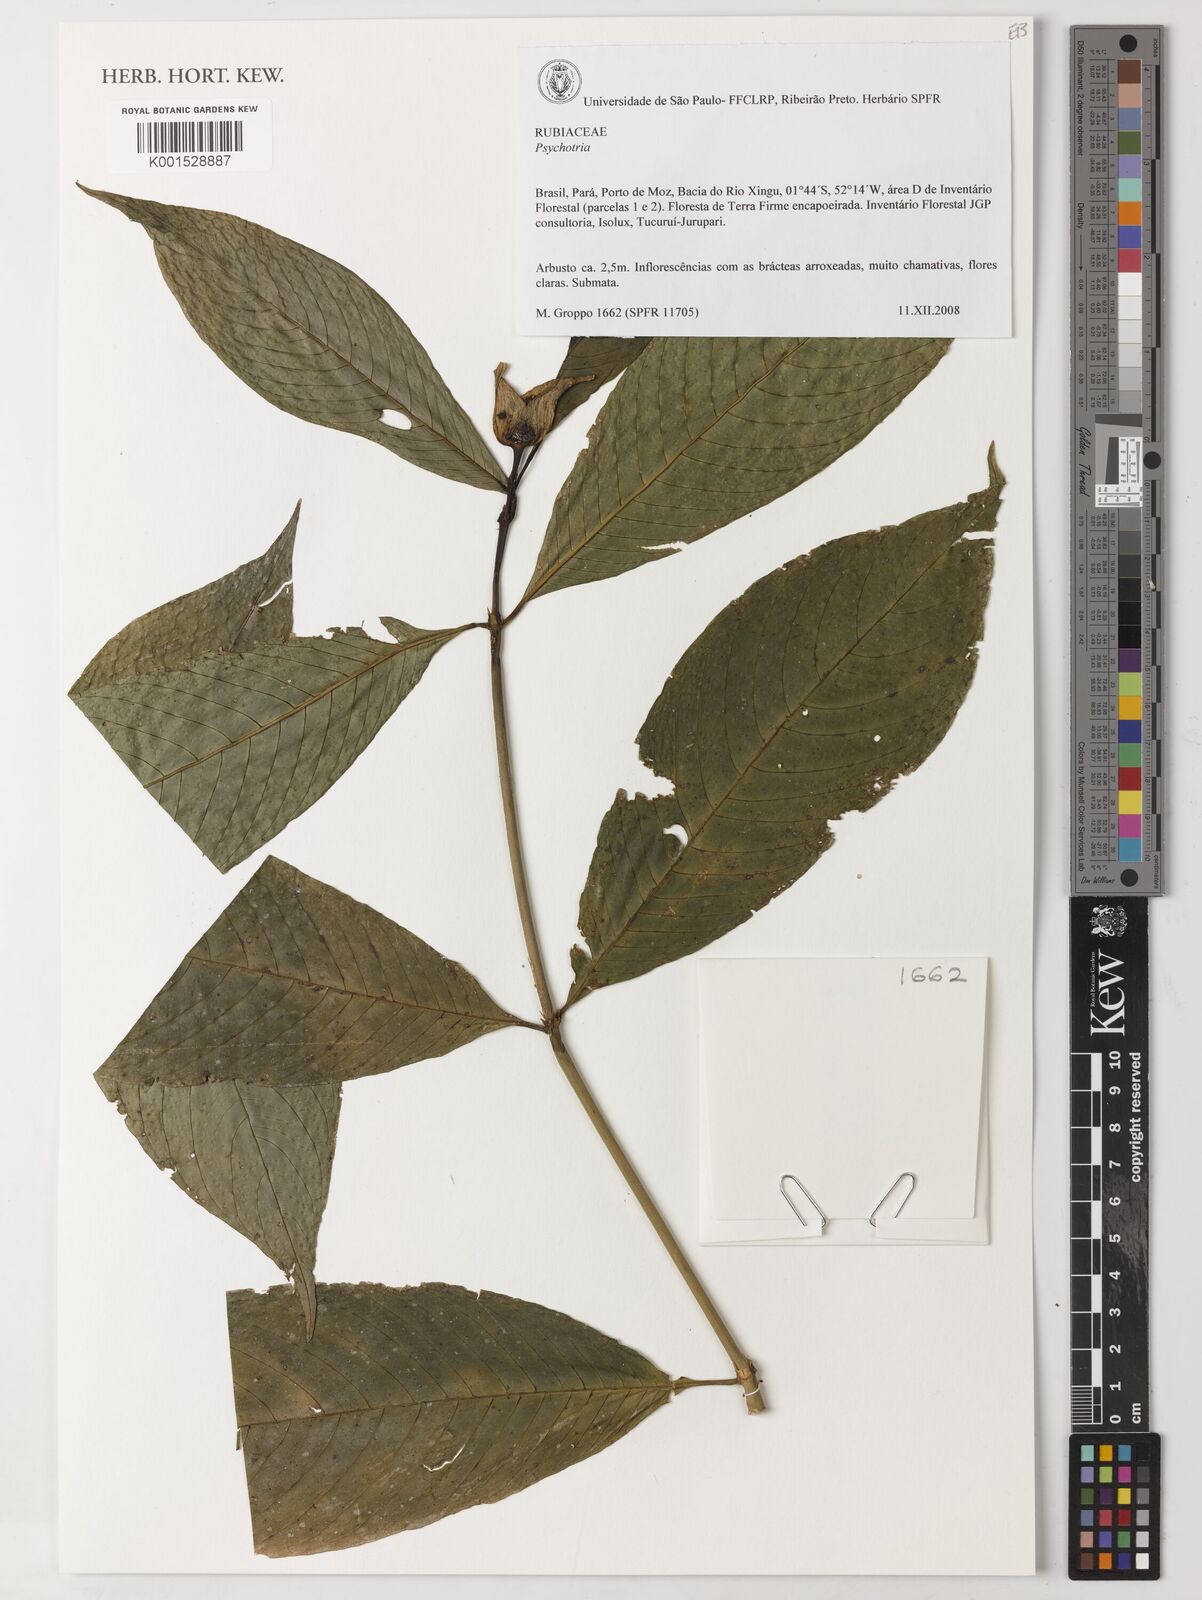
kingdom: Plantae
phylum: Tracheophyta
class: Magnoliopsida
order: Gentianales
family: Rubiaceae
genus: Psychotria
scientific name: Psychotria
